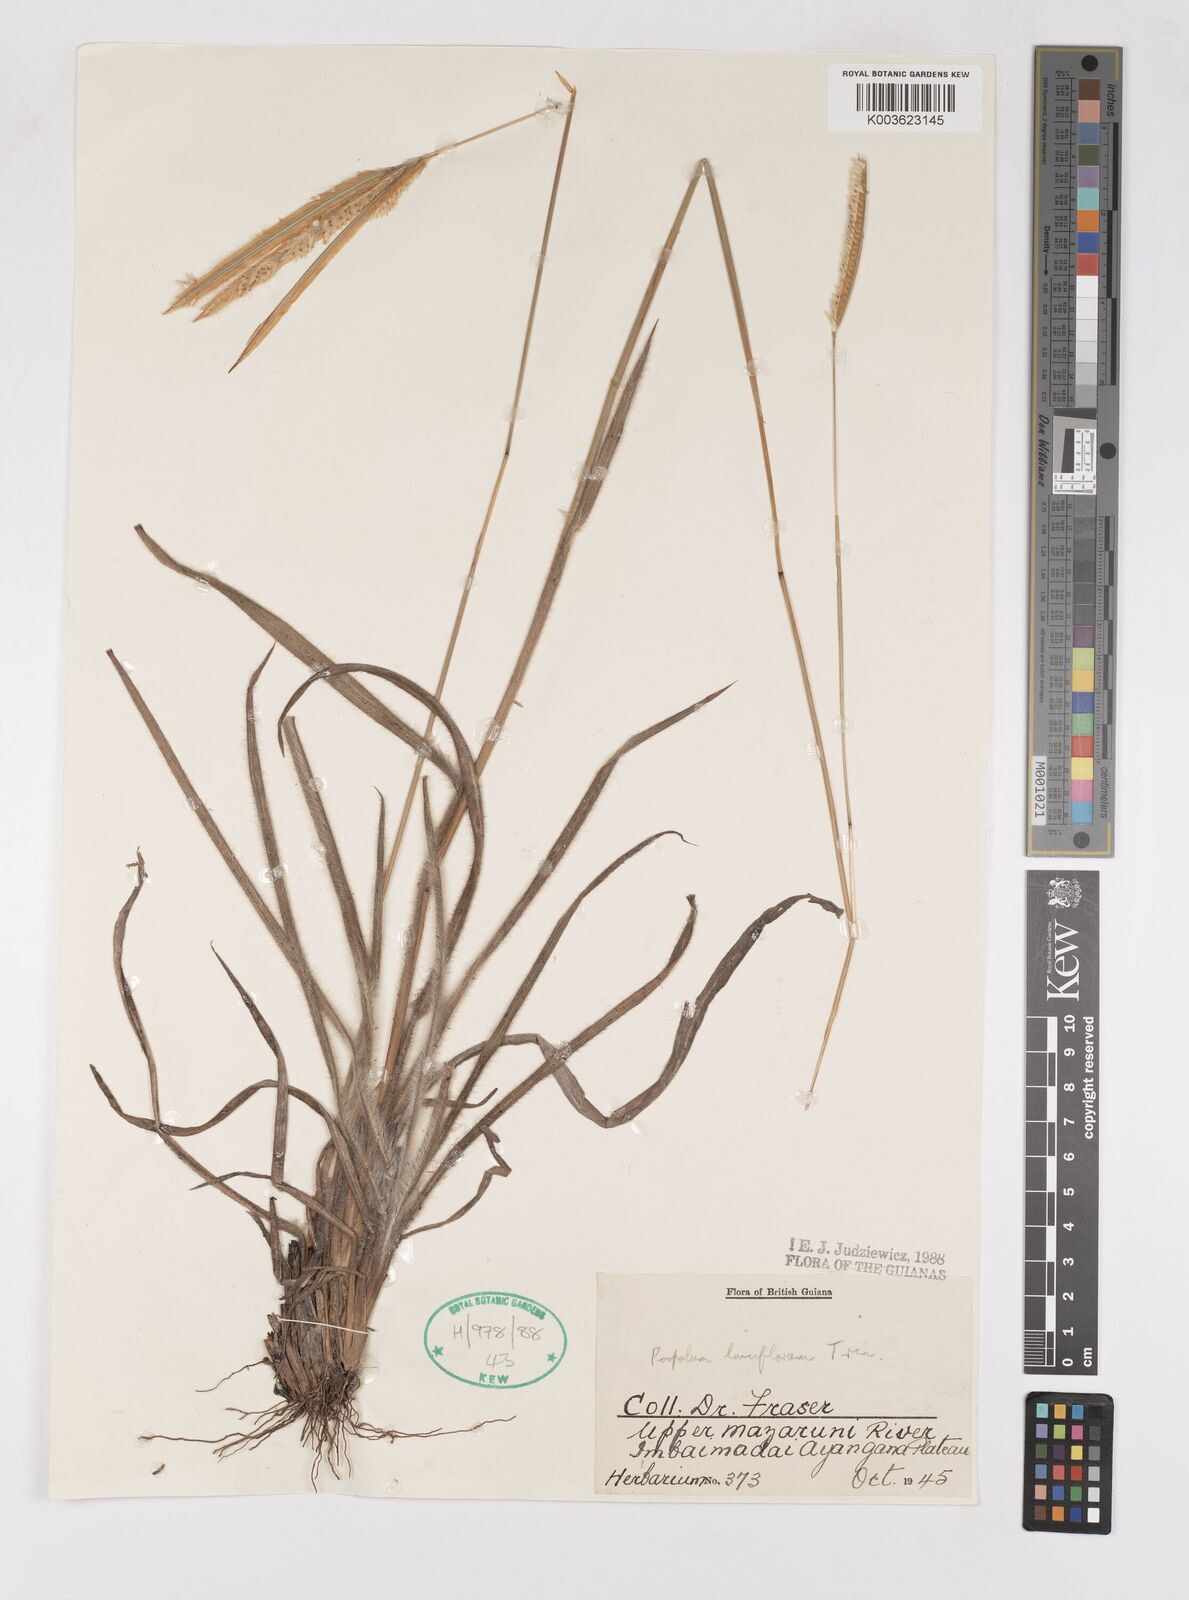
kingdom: Plantae
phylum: Tracheophyta
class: Liliopsida
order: Poales
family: Poaceae
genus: Paspalum
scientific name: Paspalum lanciflorum
